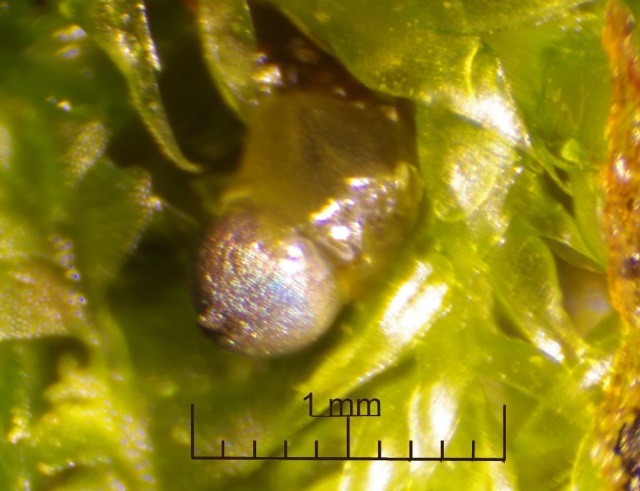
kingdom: Protozoa
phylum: Mycetozoa
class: Myxomycetes
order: Stemonitidales
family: Stemonitidaceae
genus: Colloderma
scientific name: Colloderma oculatum
